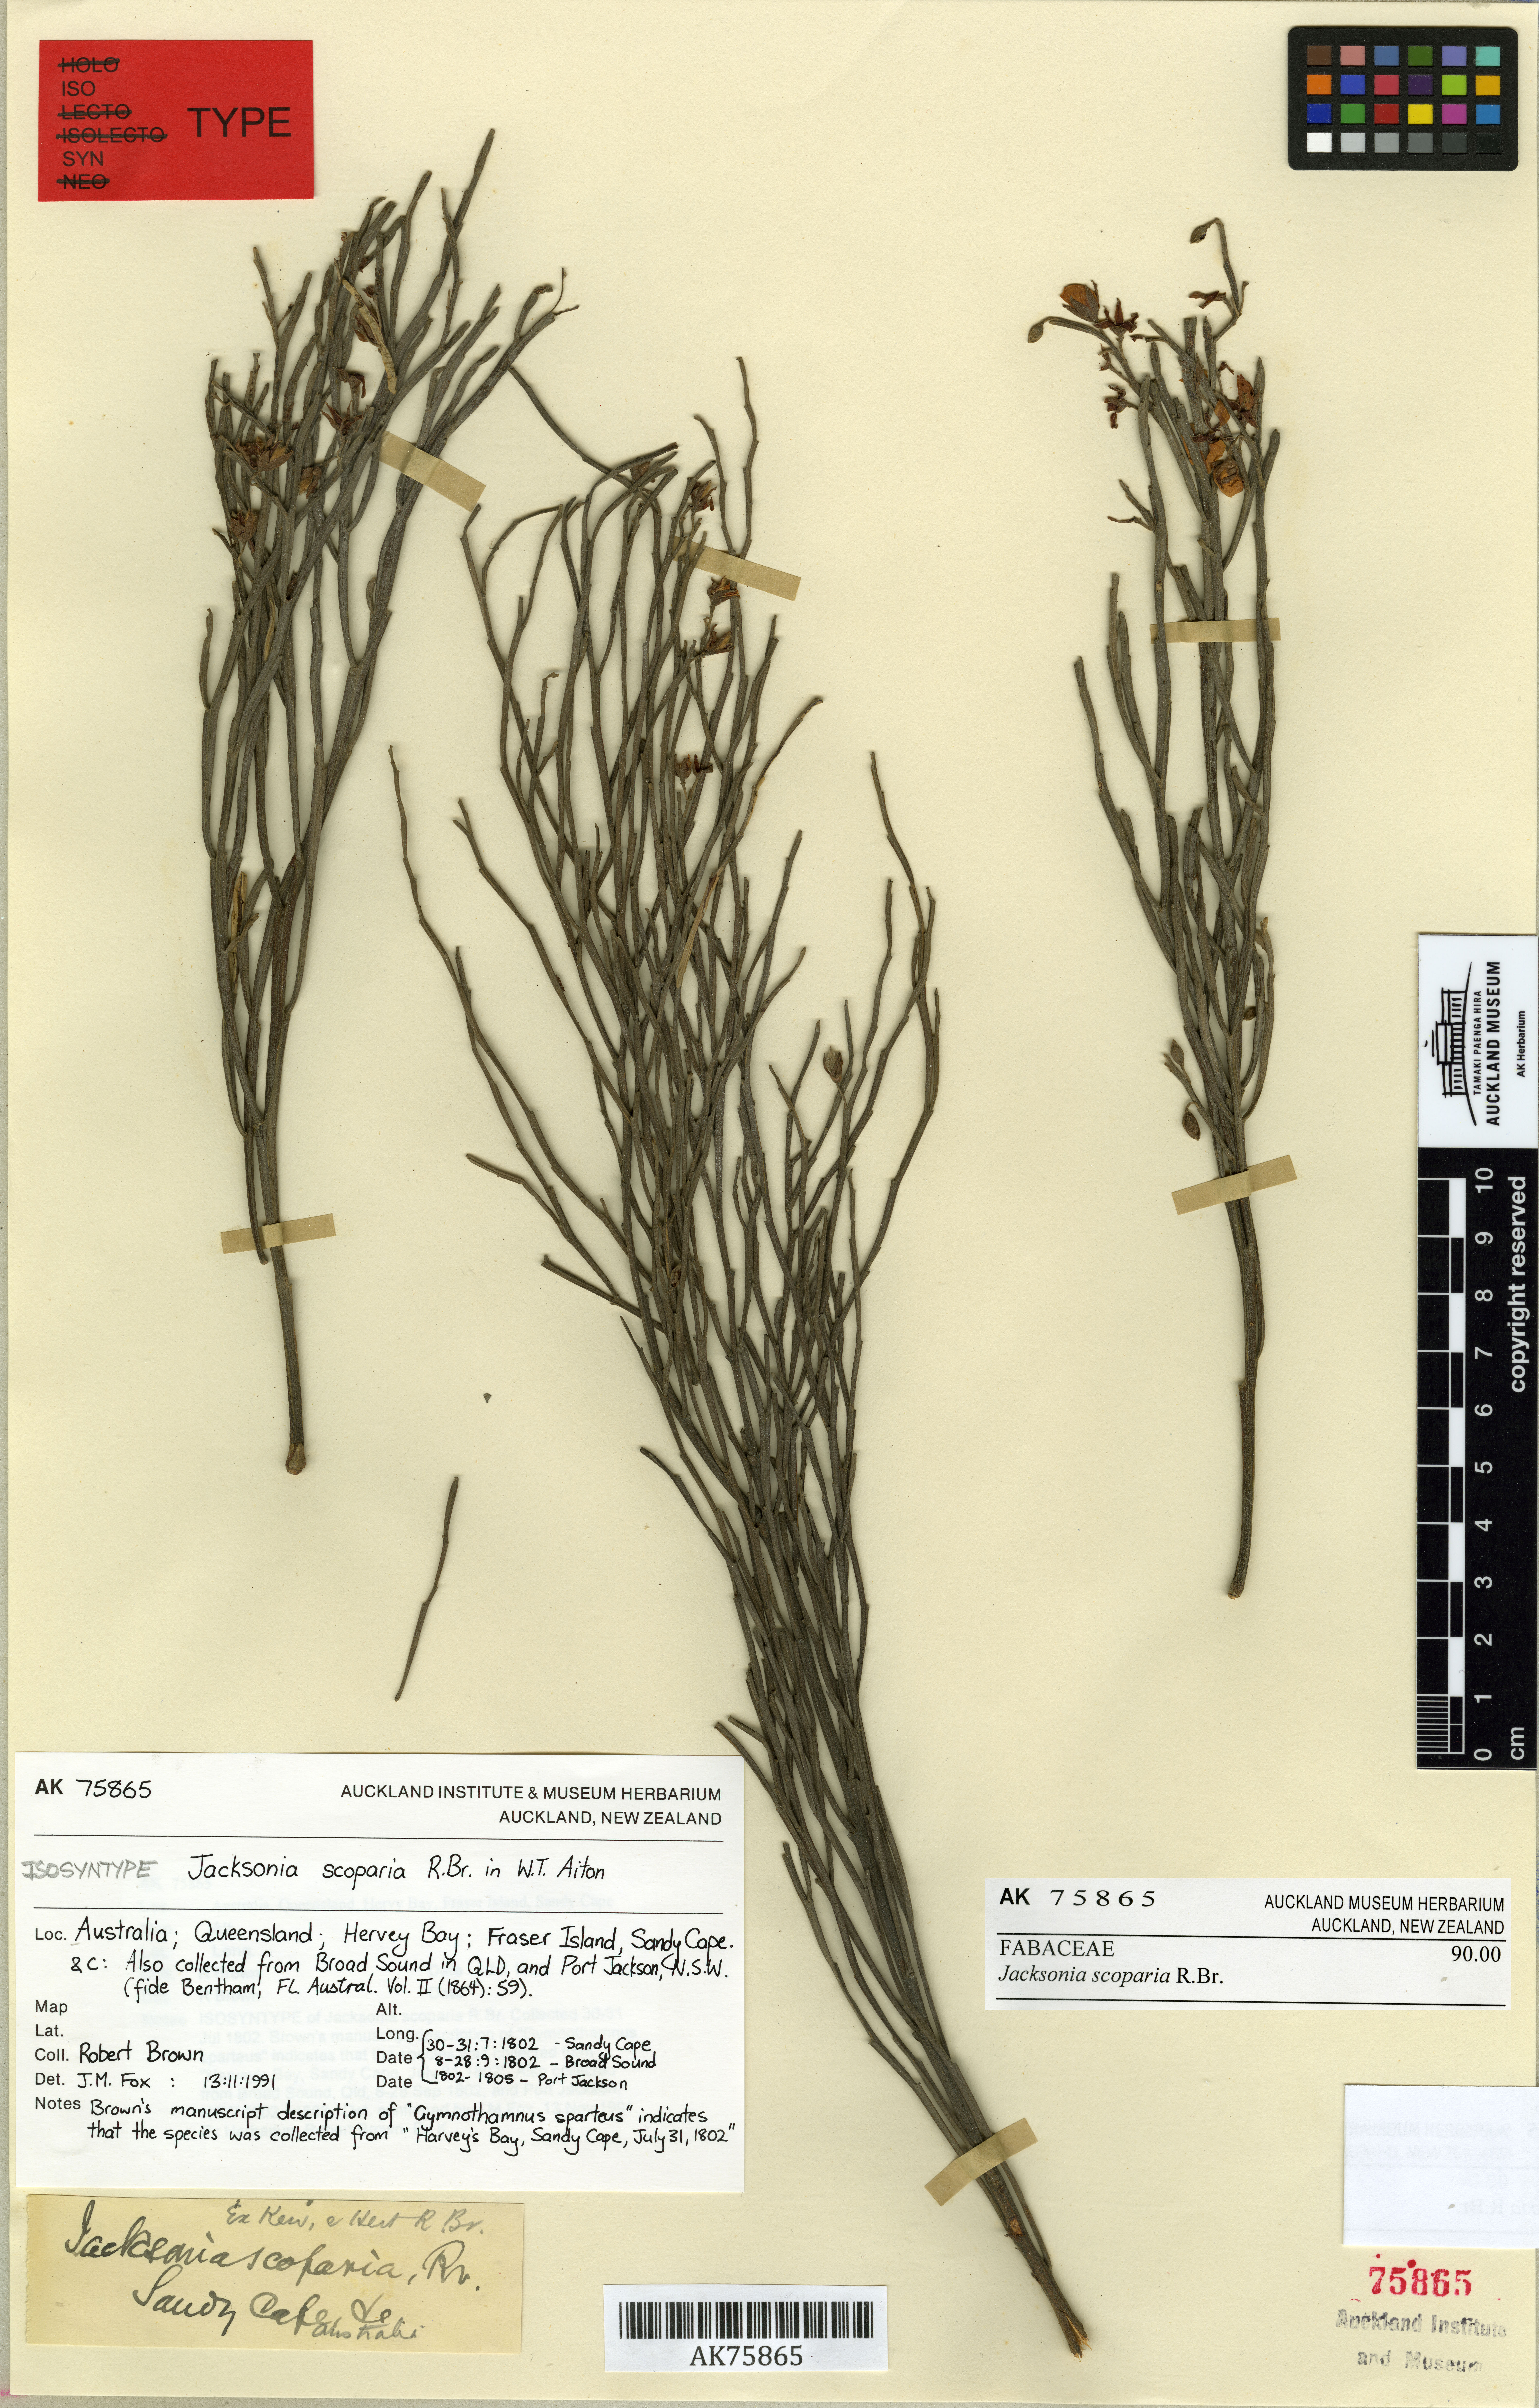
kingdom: Plantae
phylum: Tracheophyta
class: Magnoliopsida
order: Fabales
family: Fabaceae
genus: Jacksonia
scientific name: Jacksonia scoparia
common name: Dogwood
